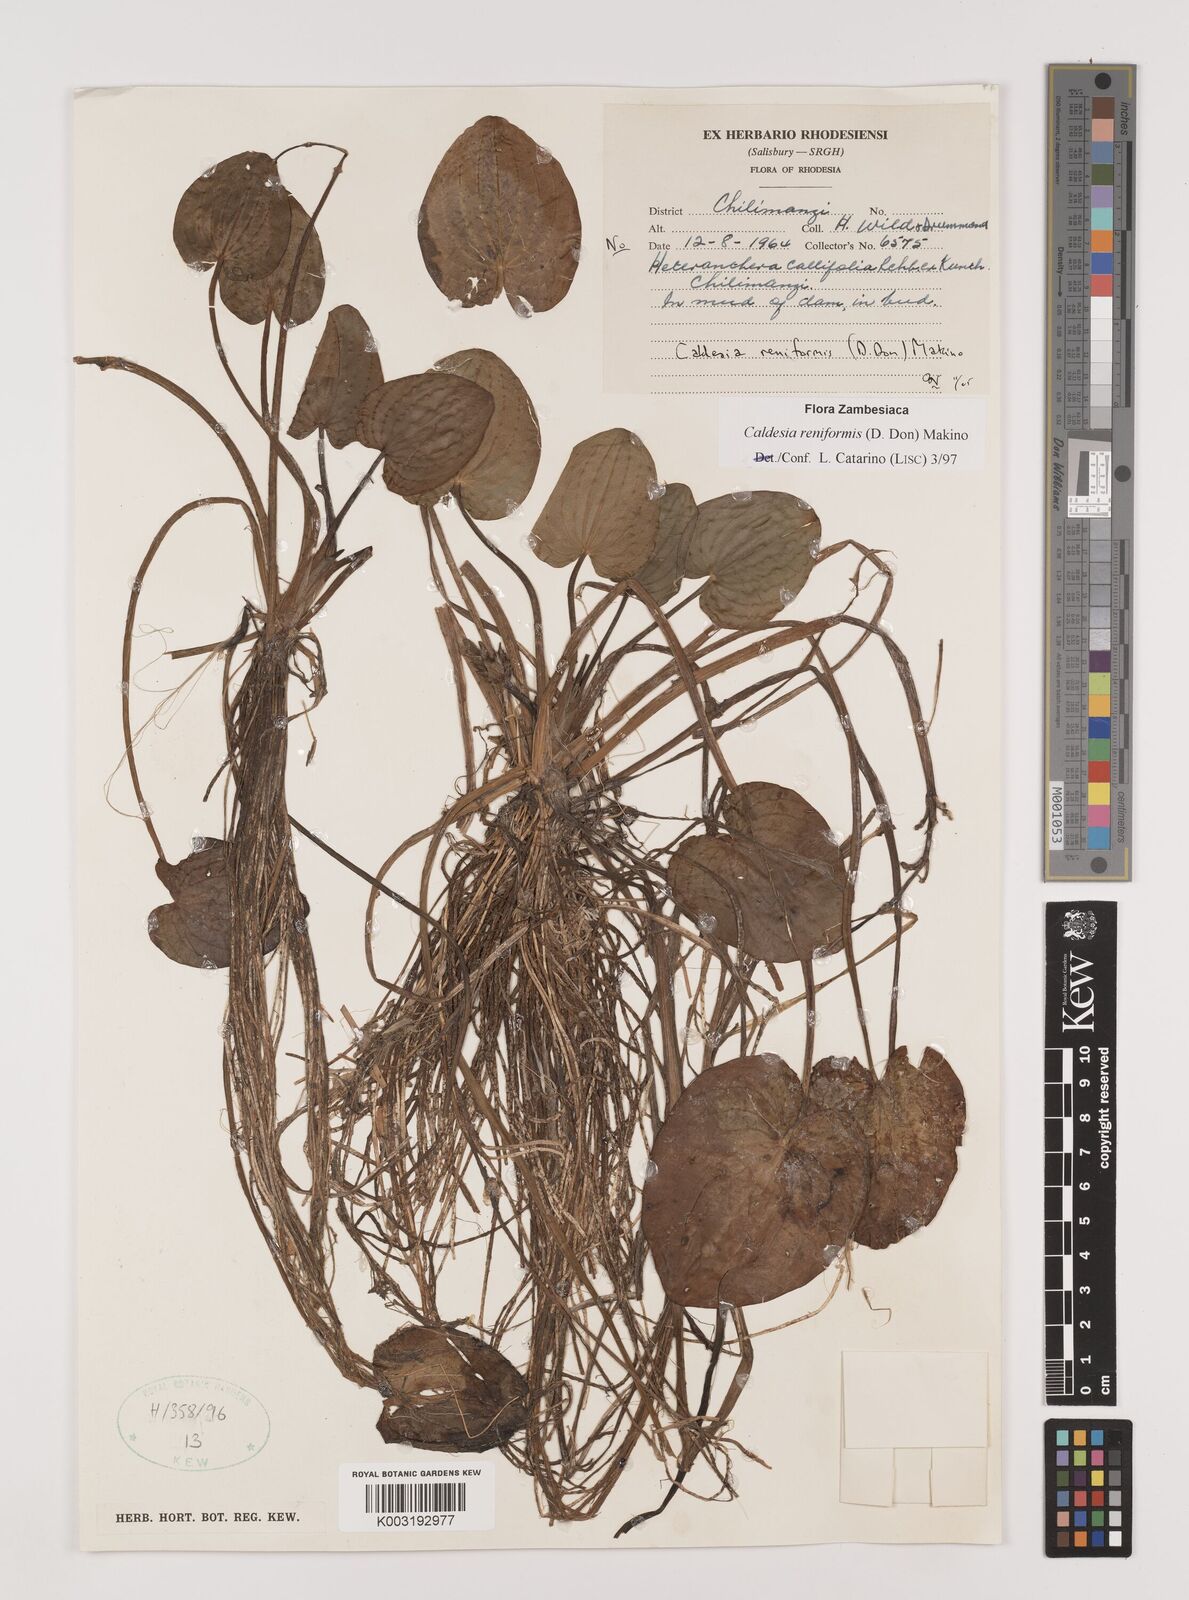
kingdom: Plantae
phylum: Tracheophyta
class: Liliopsida
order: Alismatales
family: Alismataceae
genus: Caldesia
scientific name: Caldesia parnassifolia
